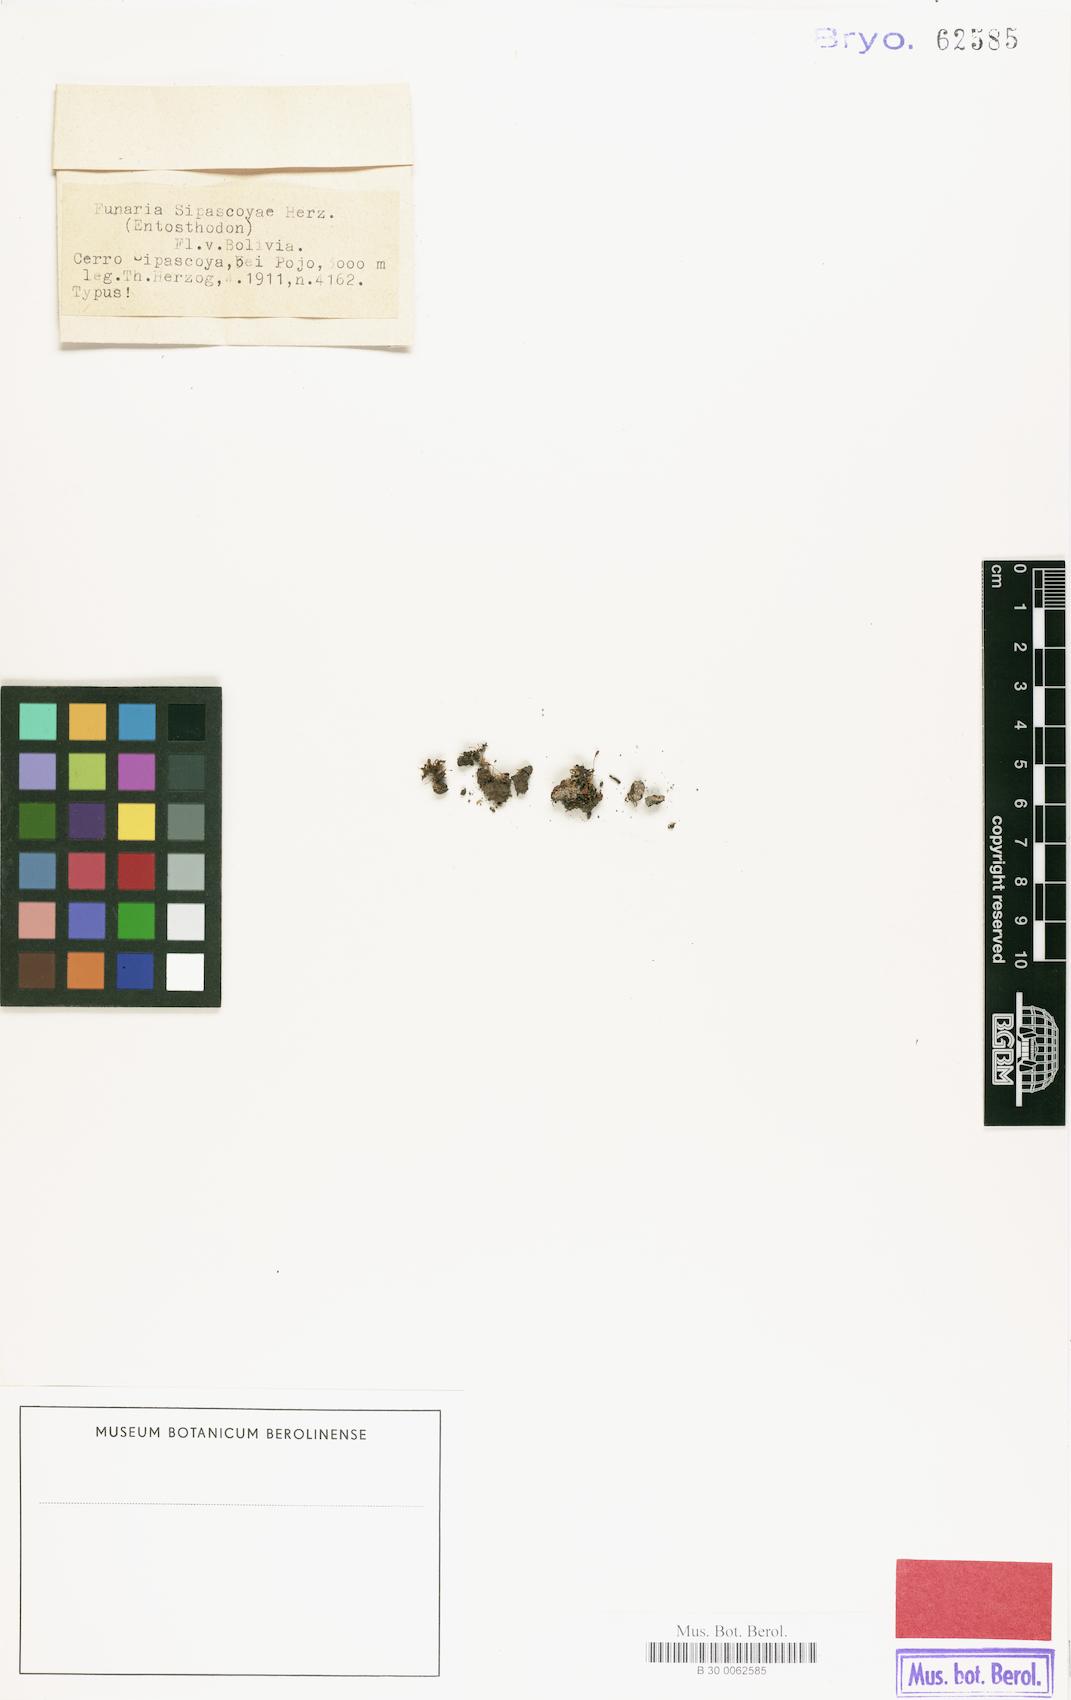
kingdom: Plantae
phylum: Bryophyta
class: Bryopsida
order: Funariales
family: Funariaceae
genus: Entosthodon
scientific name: Entosthodon obtusifolius
